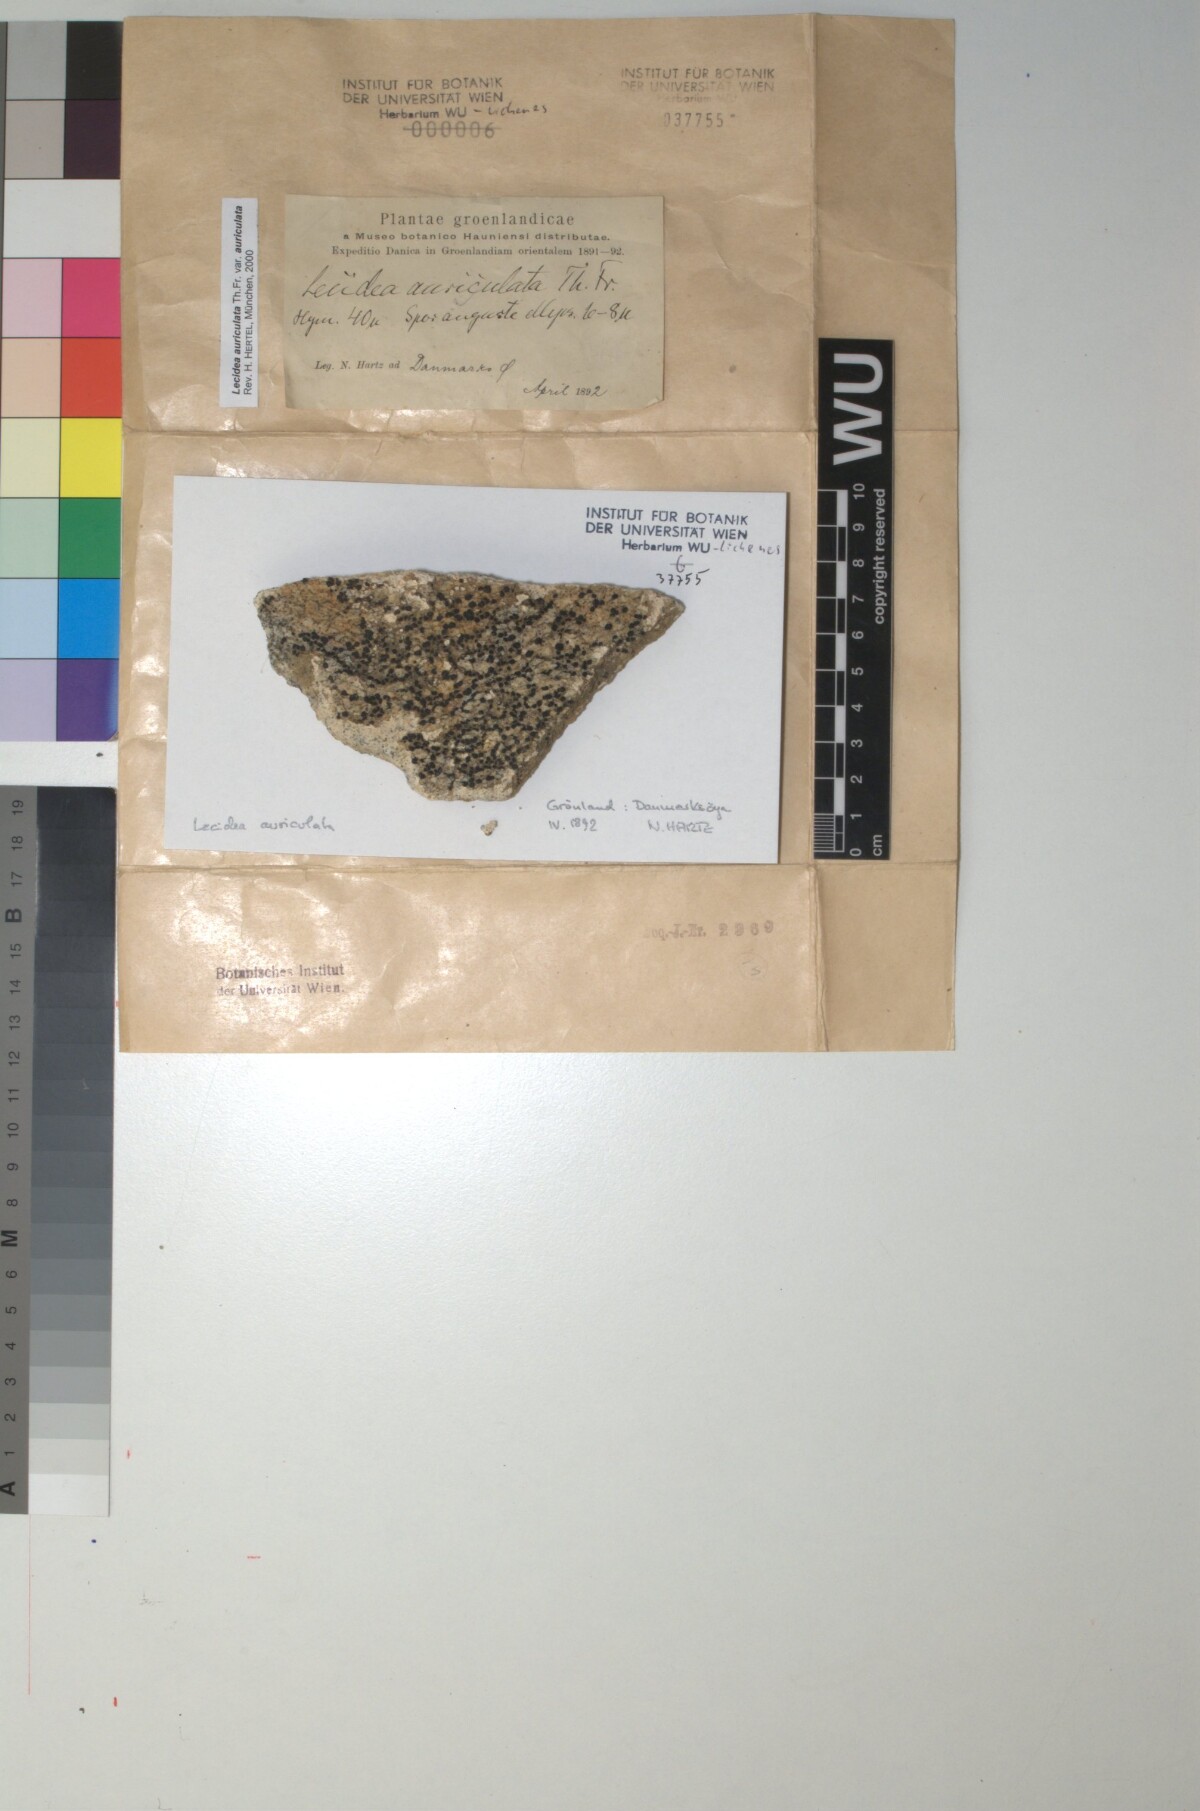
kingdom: Fungi
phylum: Ascomycota
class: Lecanoromycetes
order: Lecideales
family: Lecideaceae
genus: Lecidea
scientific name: Lecidea auriculata
